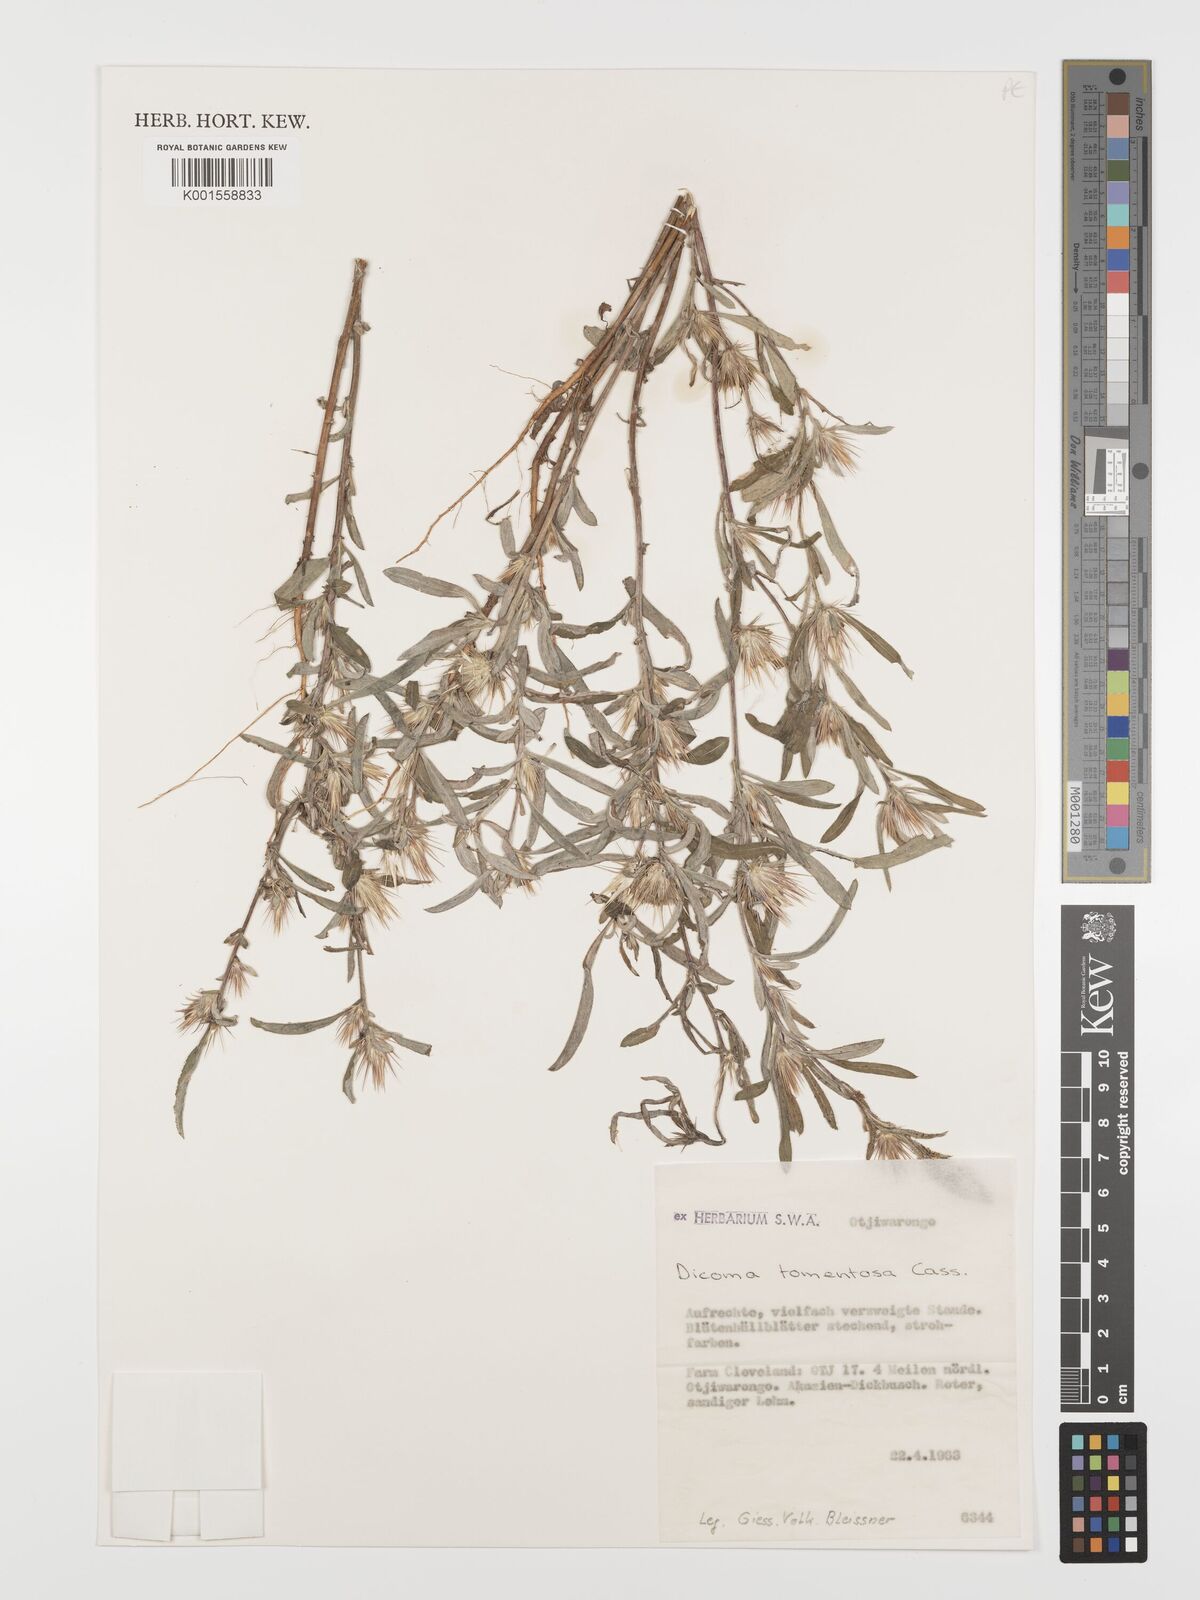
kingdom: Plantae
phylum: Tracheophyta
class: Magnoliopsida
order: Asterales
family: Asteraceae
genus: Dicoma
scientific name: Dicoma tomentosa
